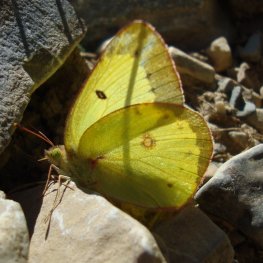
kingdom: Animalia
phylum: Arthropoda
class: Insecta
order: Lepidoptera
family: Pieridae
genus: Colias
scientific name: Colias philodice
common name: Clouded Sulphur
